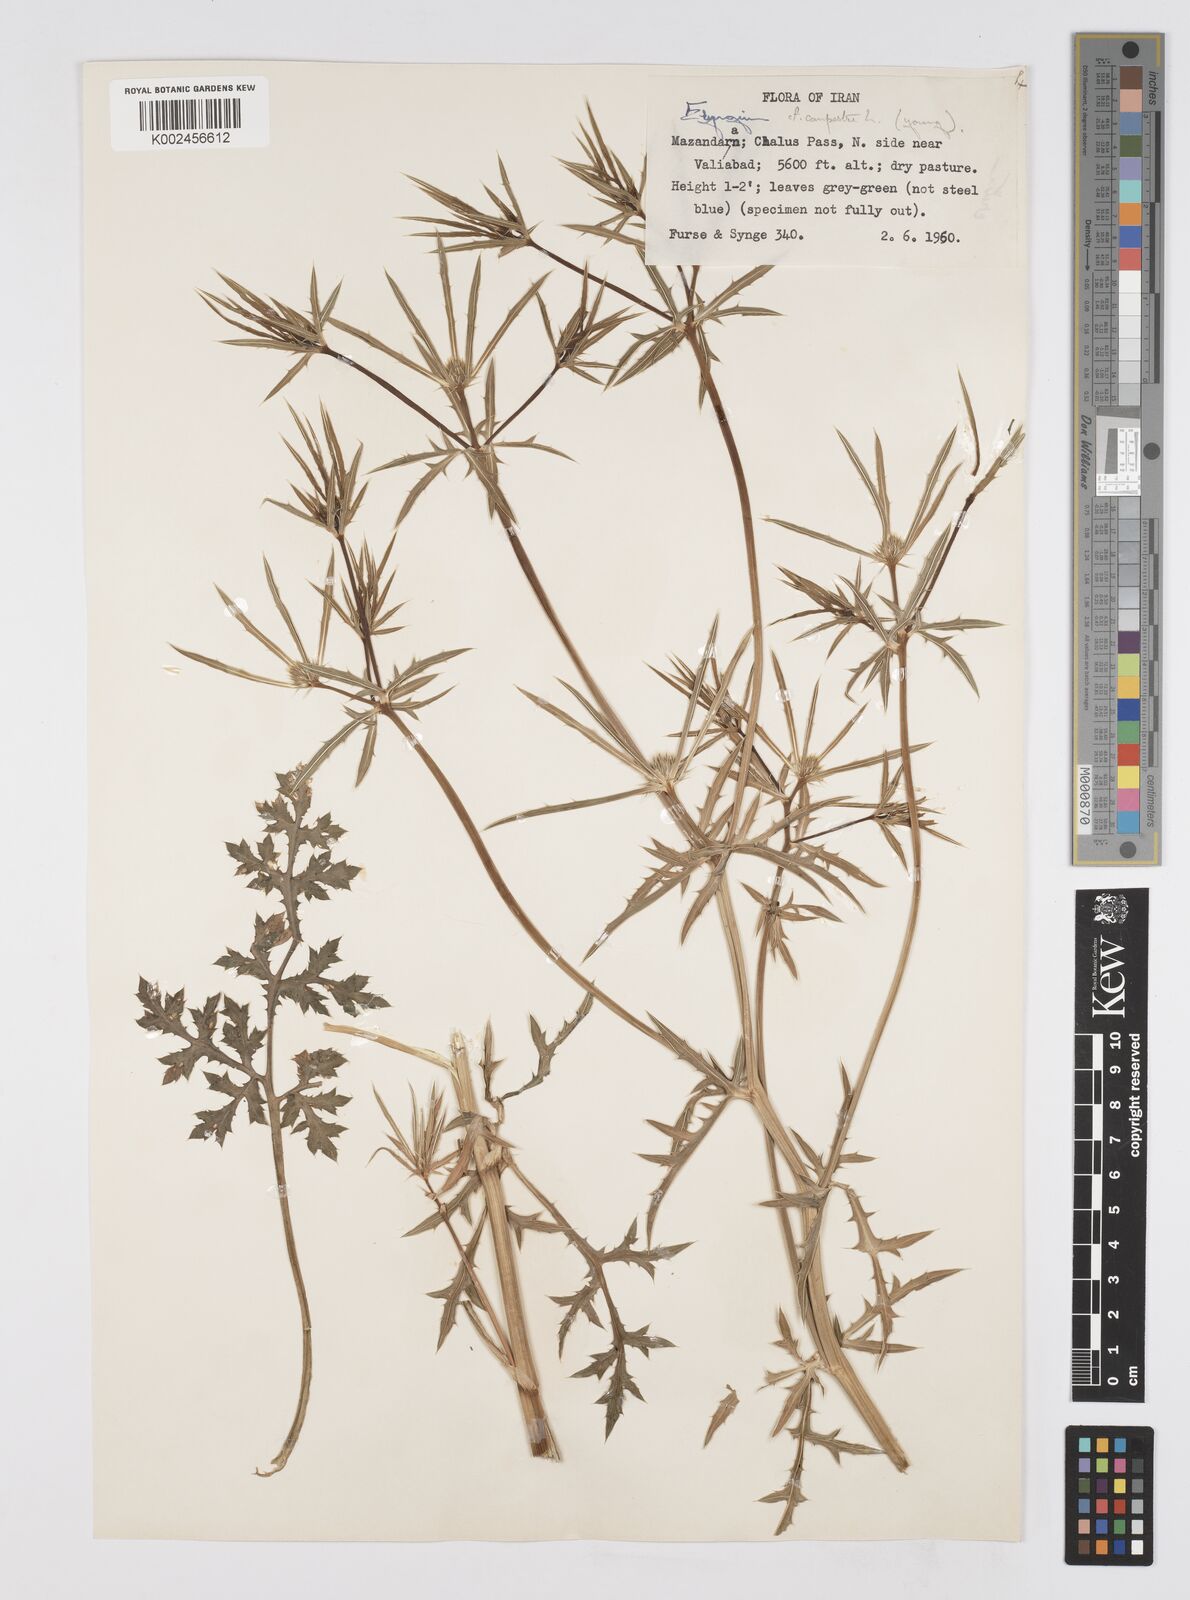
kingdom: Plantae
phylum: Tracheophyta
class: Magnoliopsida
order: Apiales
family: Apiaceae
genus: Eryngium
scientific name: Eryngium campestre
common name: Field eryngo
